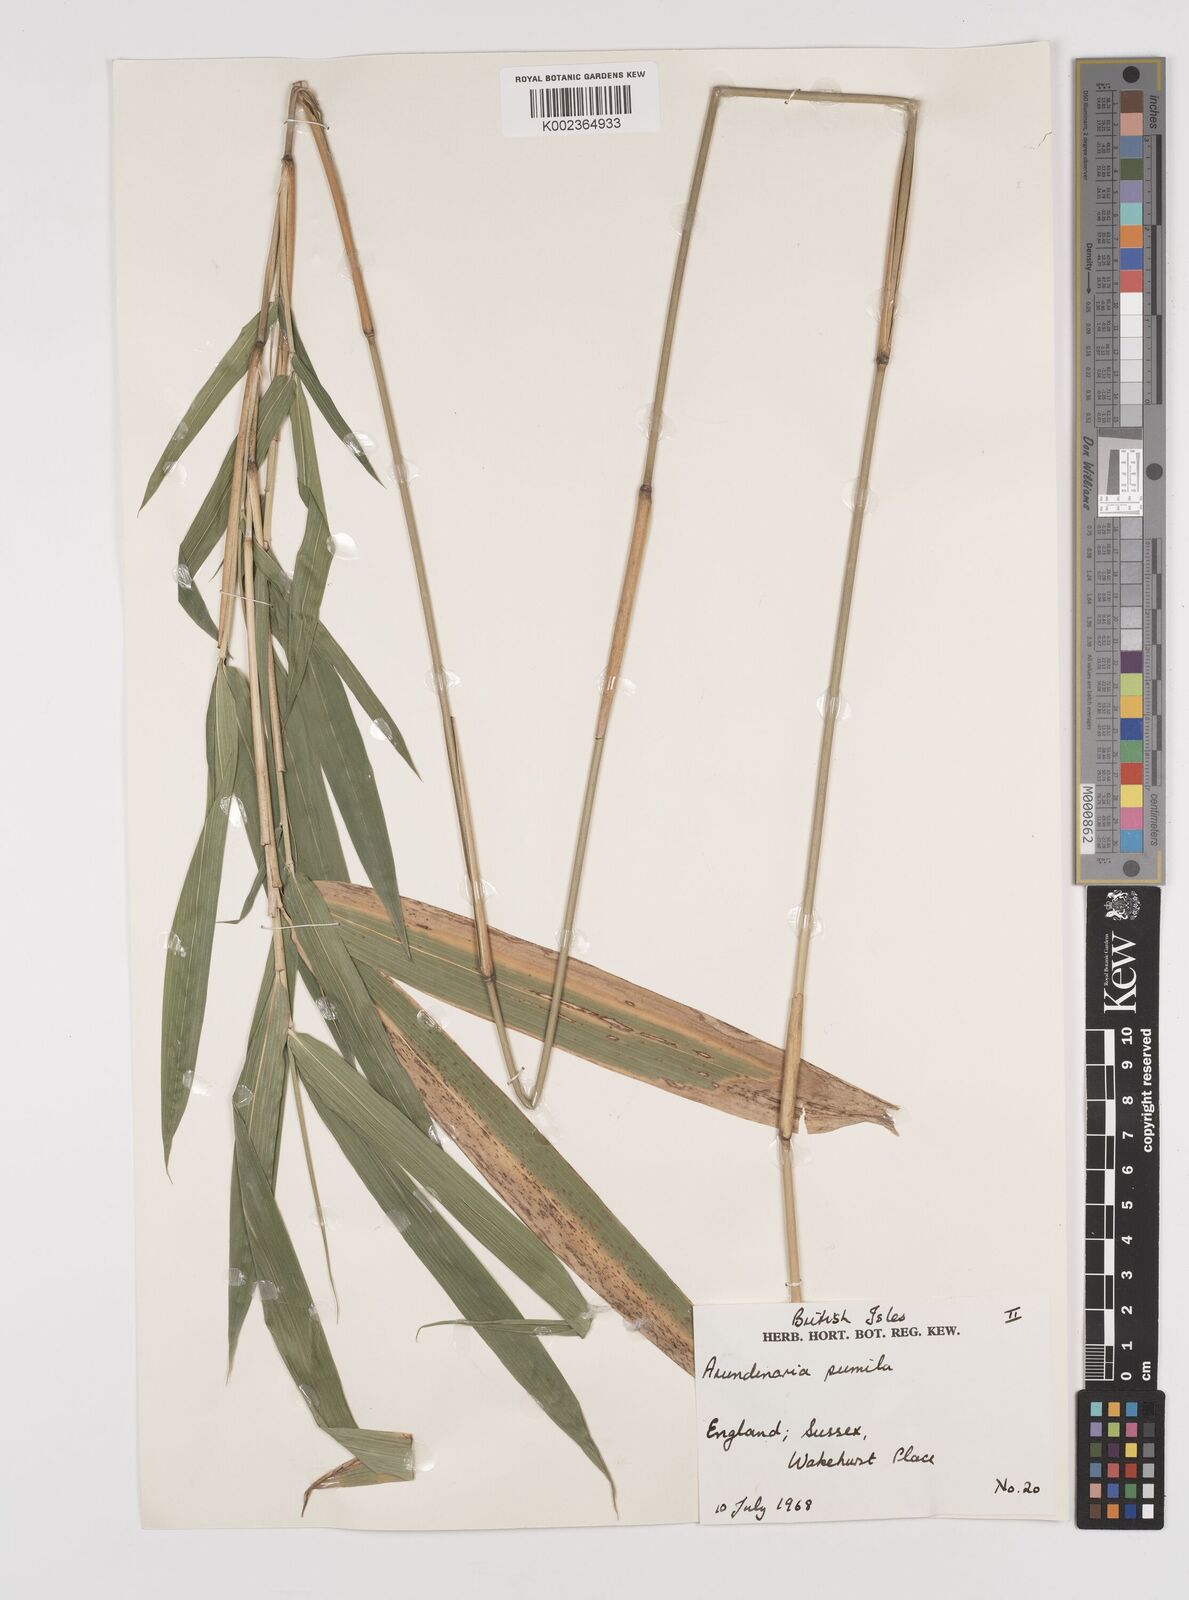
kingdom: Plantae
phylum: Tracheophyta
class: Liliopsida
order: Poales
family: Poaceae
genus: Pleioblastus
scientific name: Pleioblastus argenteostriatus
